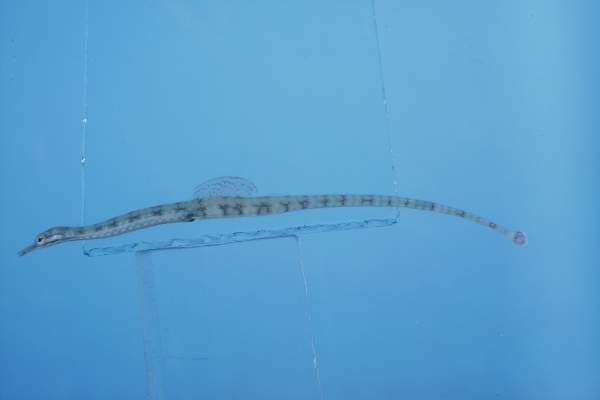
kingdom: Animalia
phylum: Chordata
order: Syngnathiformes
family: Syngnathidae
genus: Corythoichthys
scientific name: Corythoichthys flavofasciatus
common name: Banded pipefish
